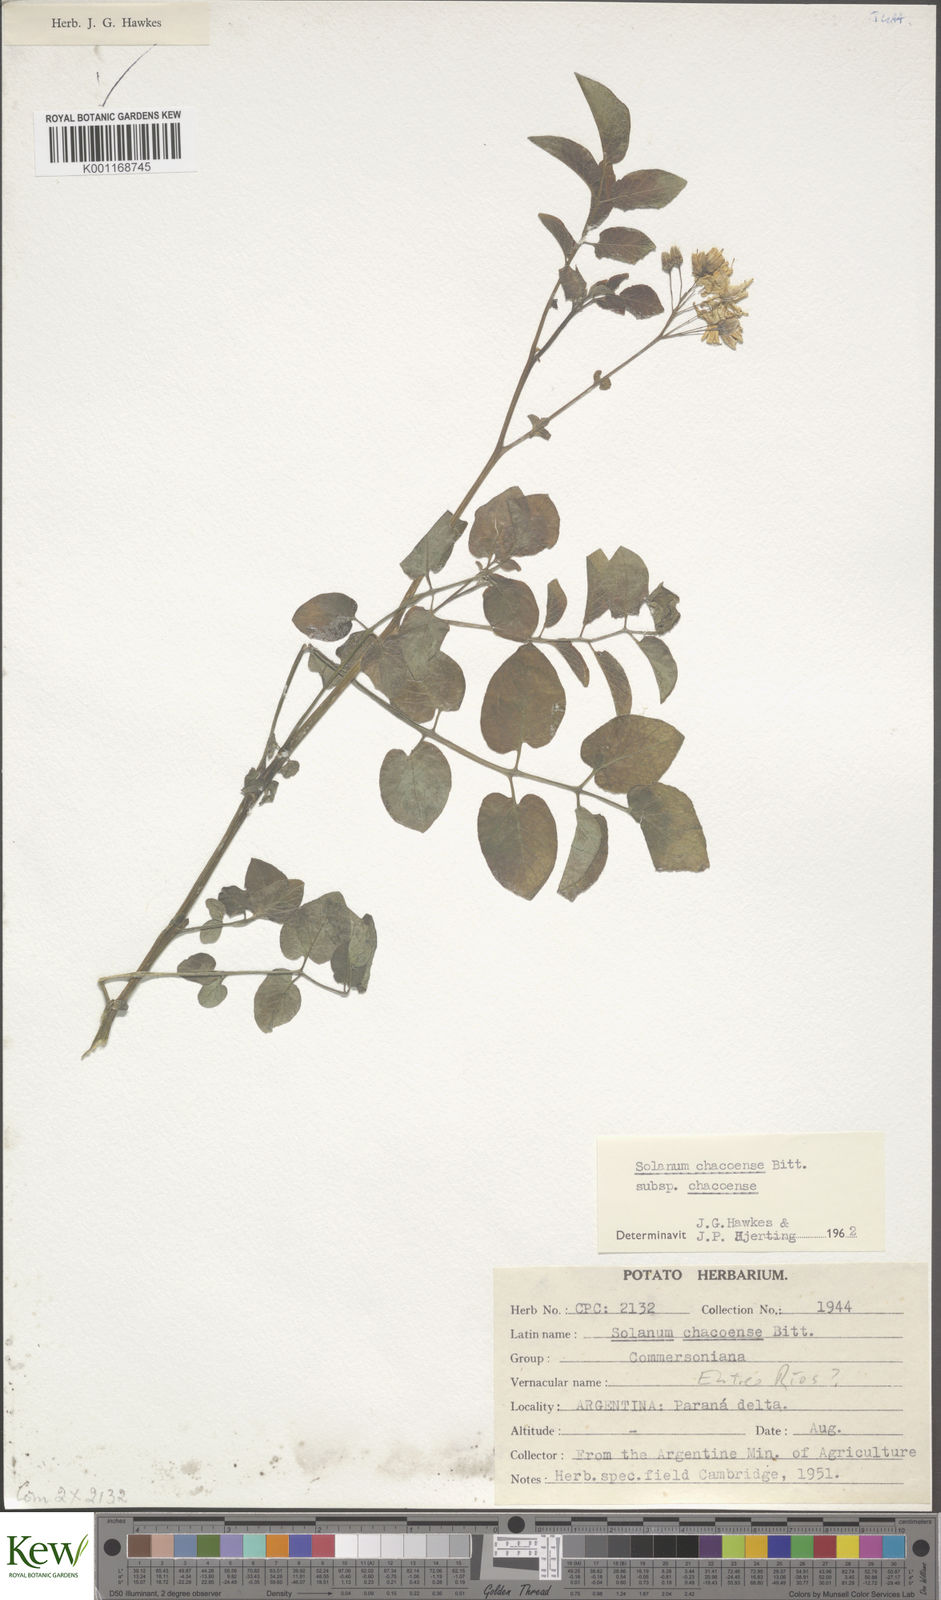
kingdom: Plantae
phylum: Tracheophyta
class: Magnoliopsida
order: Solanales
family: Solanaceae
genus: Solanum
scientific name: Solanum chacoense
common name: Chaco potato
